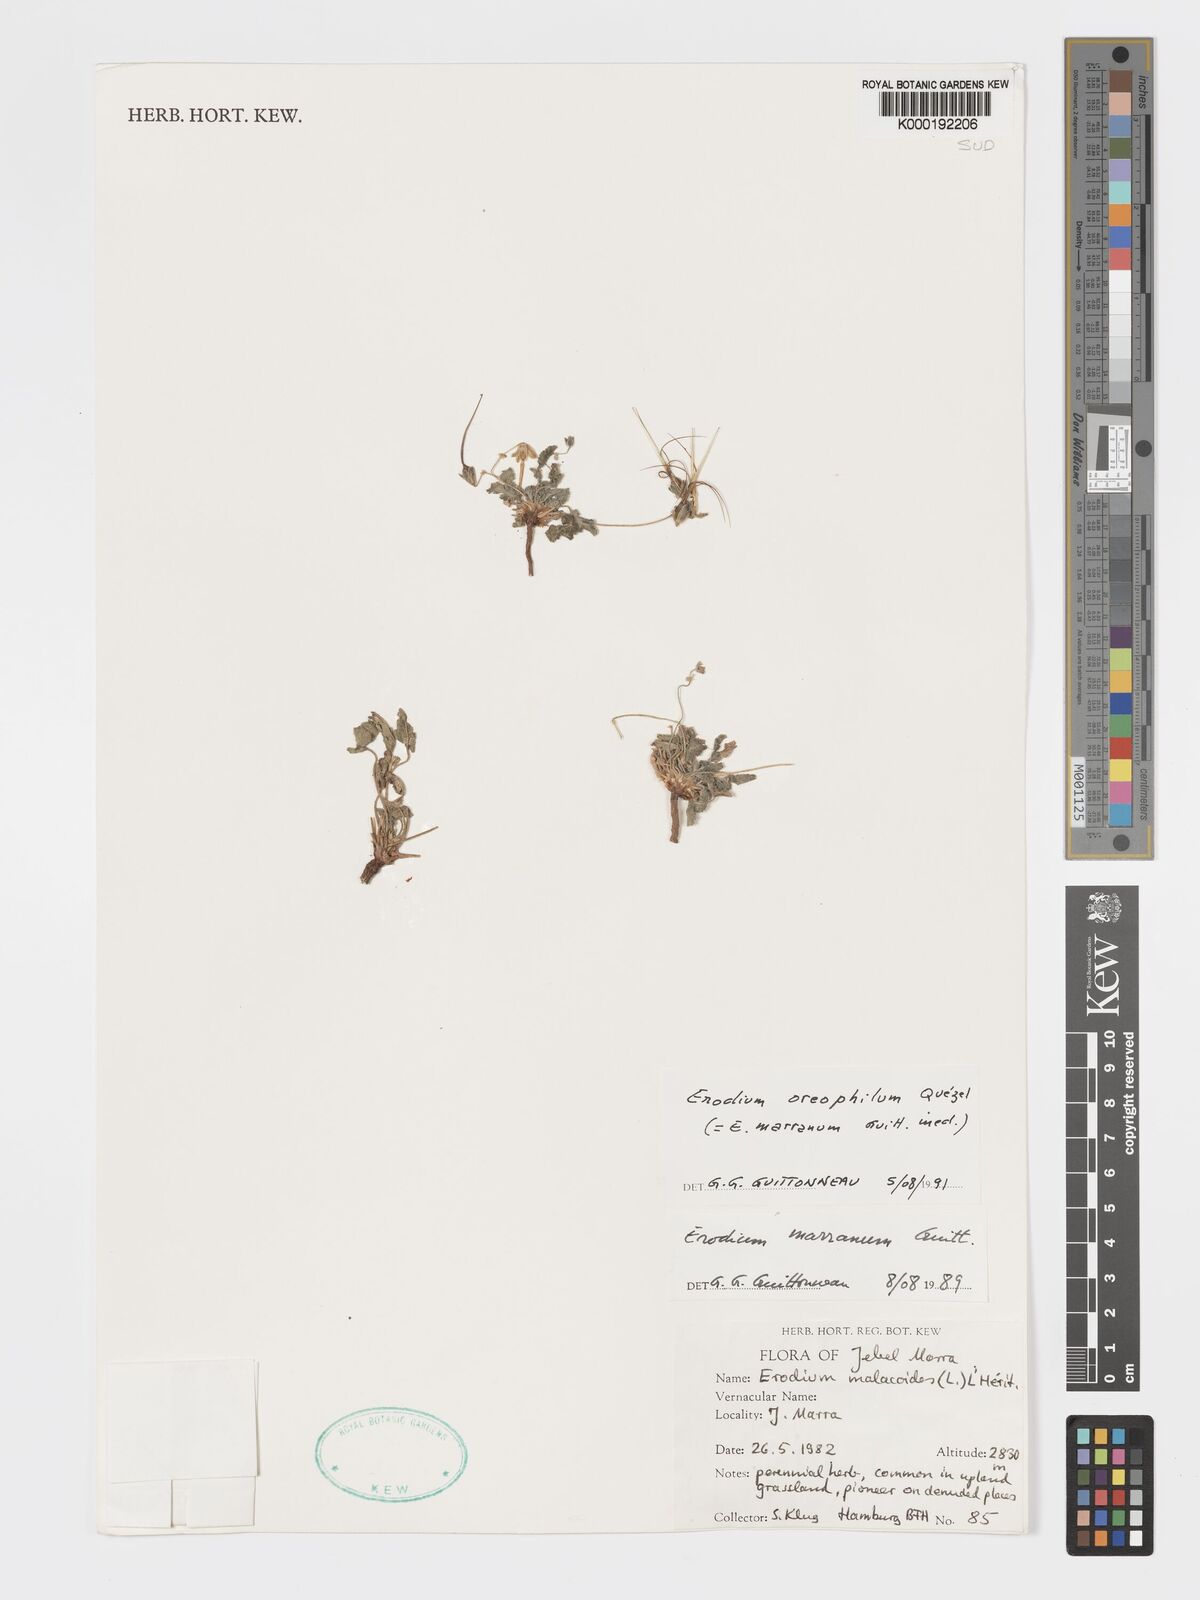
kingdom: Plantae
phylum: Tracheophyta
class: Magnoliopsida
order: Geraniales
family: Geraniaceae
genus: Erodium
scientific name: Erodium oreophilum
